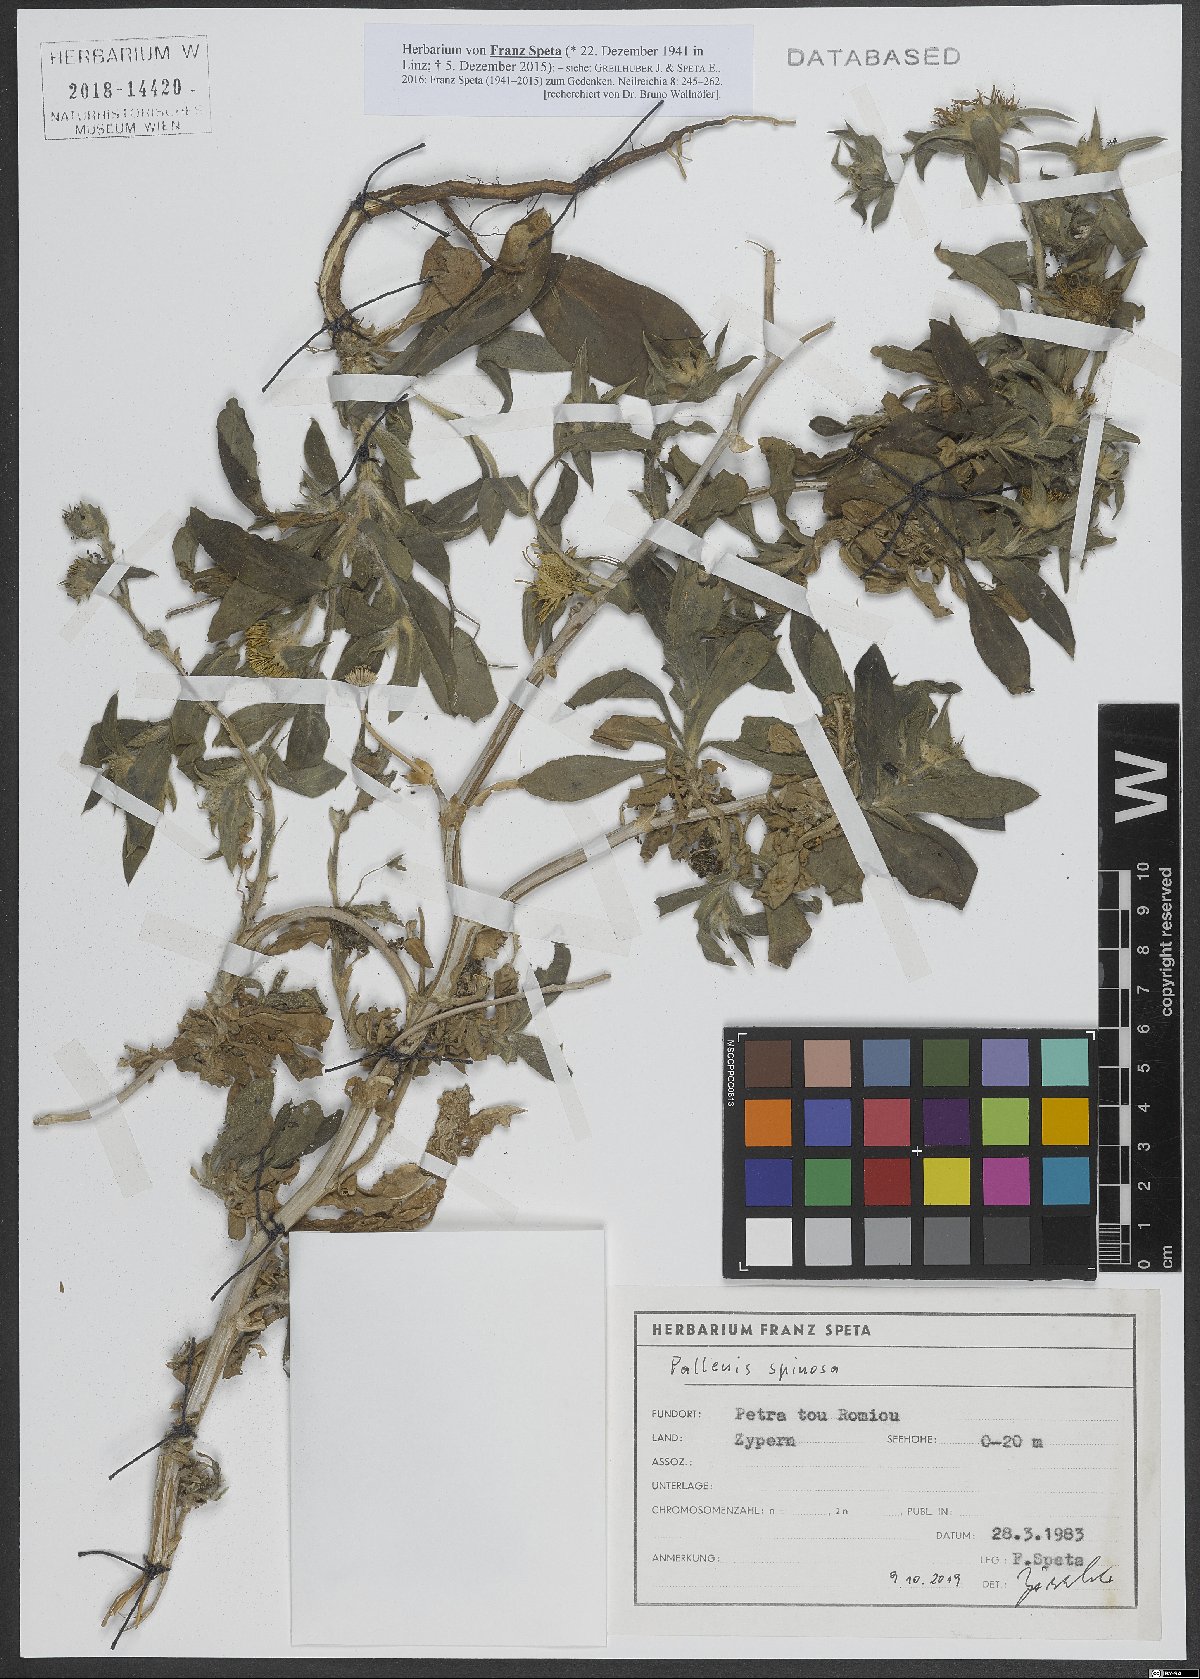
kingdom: Plantae
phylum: Tracheophyta
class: Magnoliopsida
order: Asterales
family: Asteraceae
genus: Pallenis
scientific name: Pallenis spinosa
